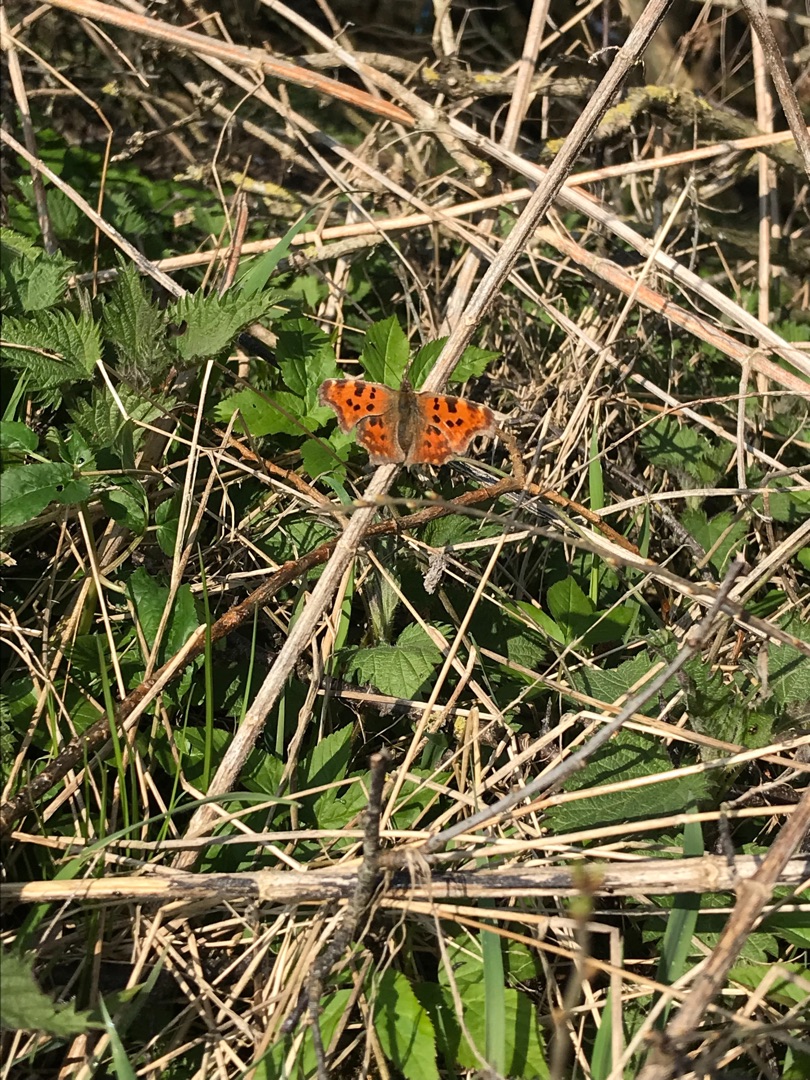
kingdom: Animalia
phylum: Arthropoda
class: Insecta
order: Lepidoptera
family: Nymphalidae
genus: Polygonia
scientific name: Polygonia c-album
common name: Det hvide C
